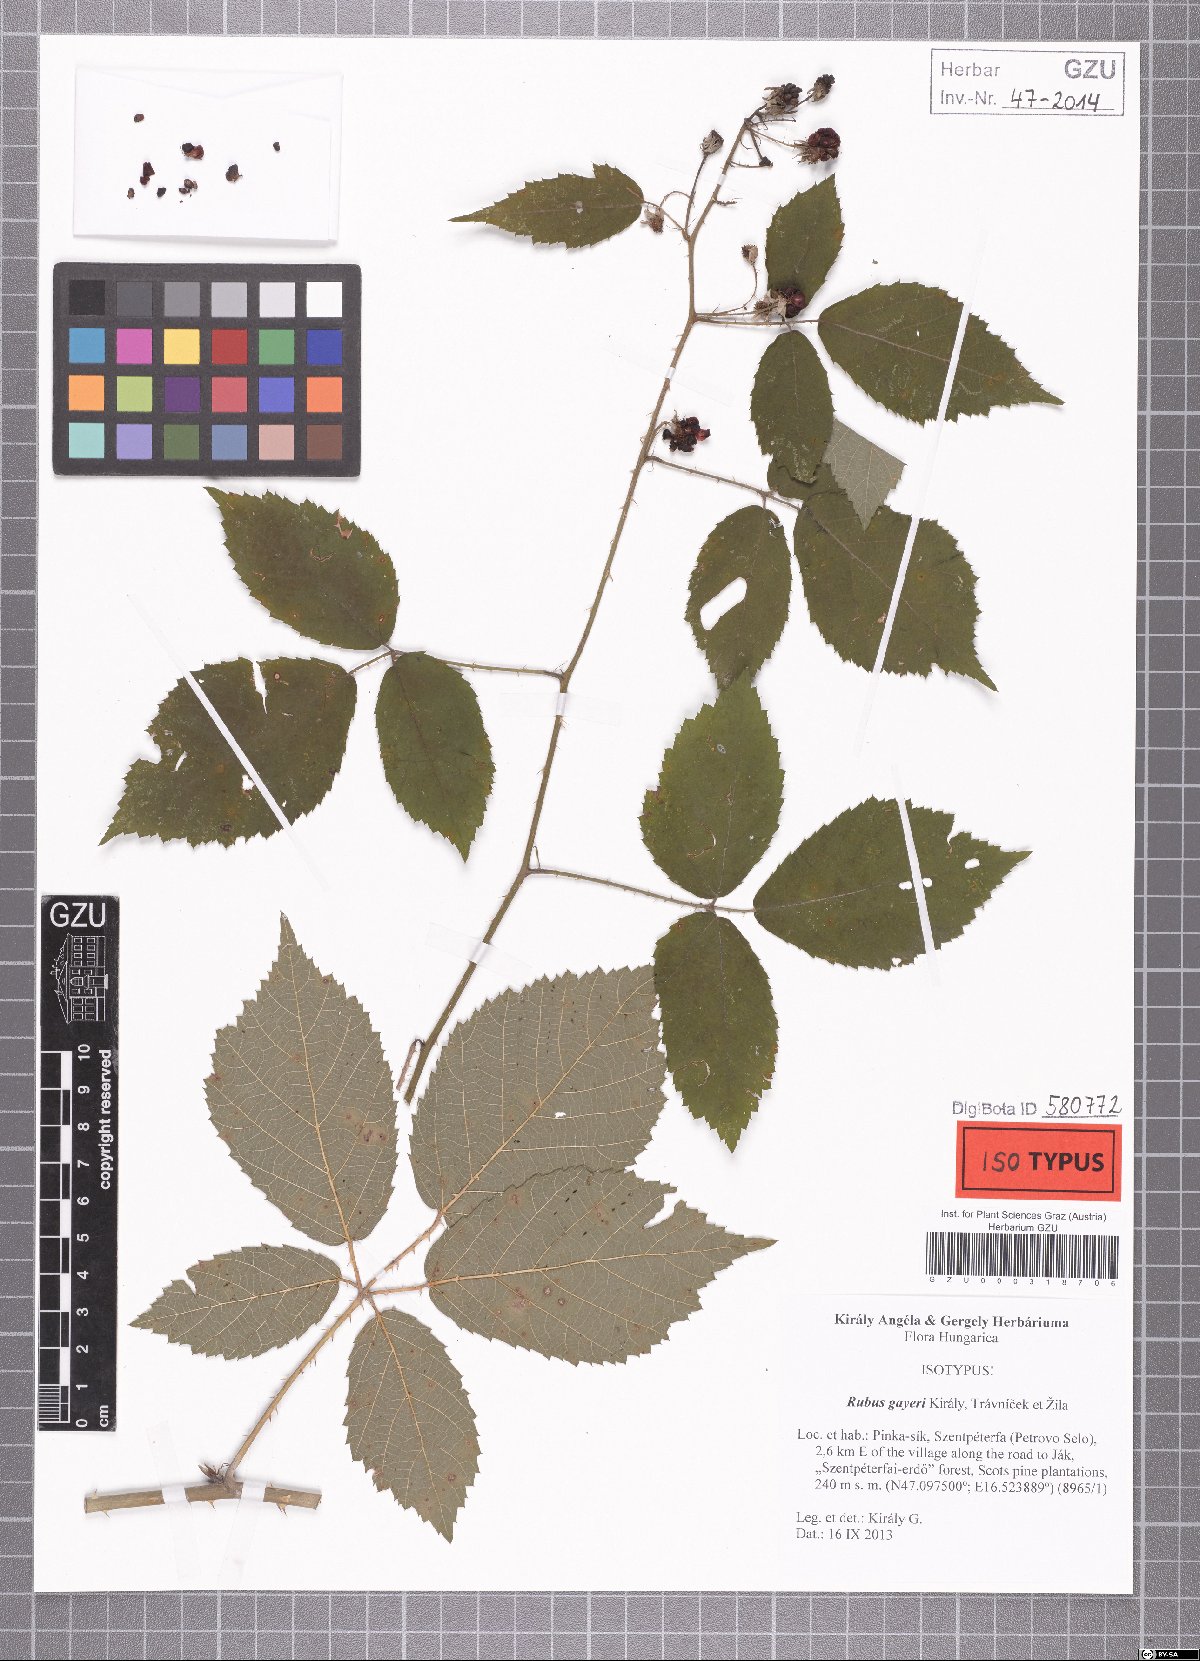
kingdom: Plantae
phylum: Tracheophyta
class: Magnoliopsida
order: Rosales
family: Rosaceae
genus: Rubus
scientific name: Rubus gayeri
